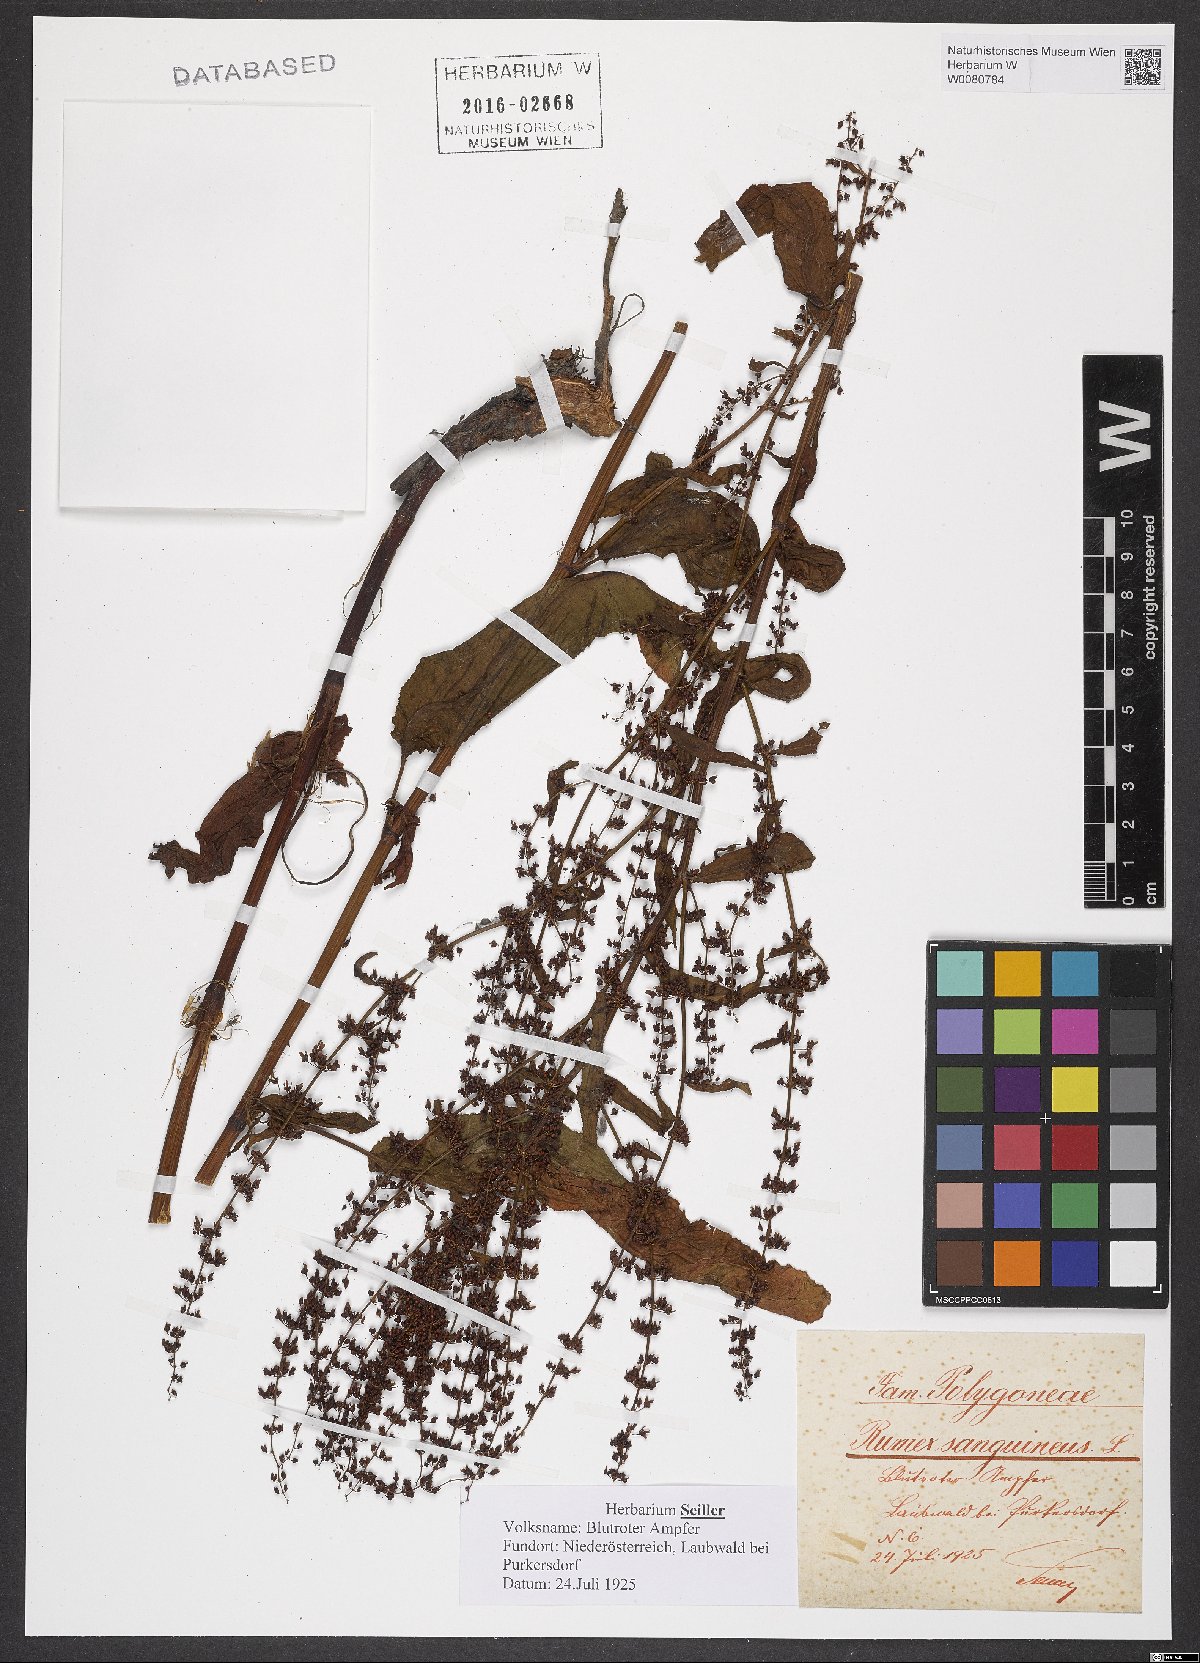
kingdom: Plantae
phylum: Tracheophyta
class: Magnoliopsida
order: Caryophyllales
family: Polygonaceae
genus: Rumex
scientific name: Rumex sanguineus
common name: Wood dock
